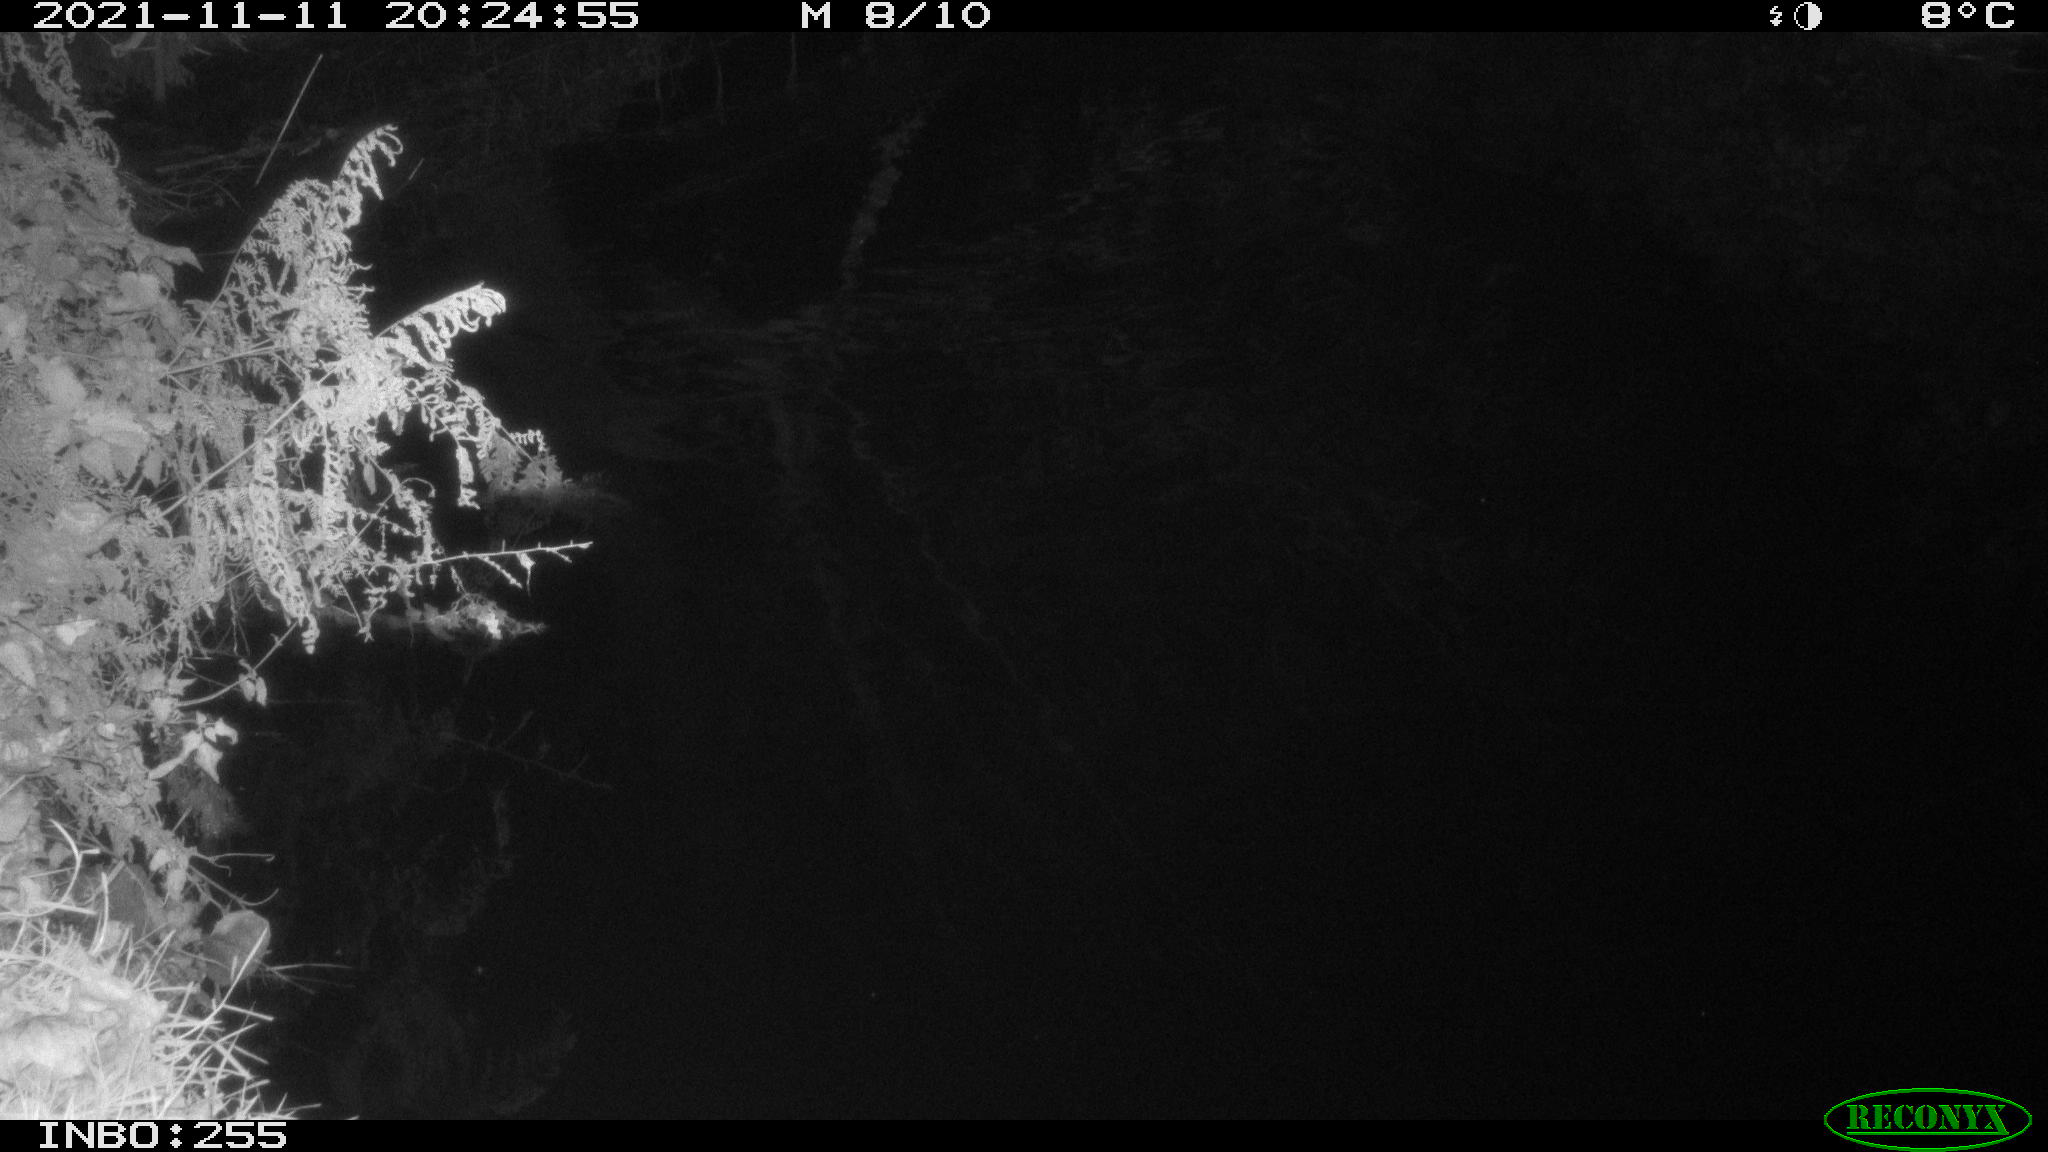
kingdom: Animalia
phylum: Chordata
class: Mammalia
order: Rodentia
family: Muridae
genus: Rattus
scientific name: Rattus norvegicus
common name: Brown rat
